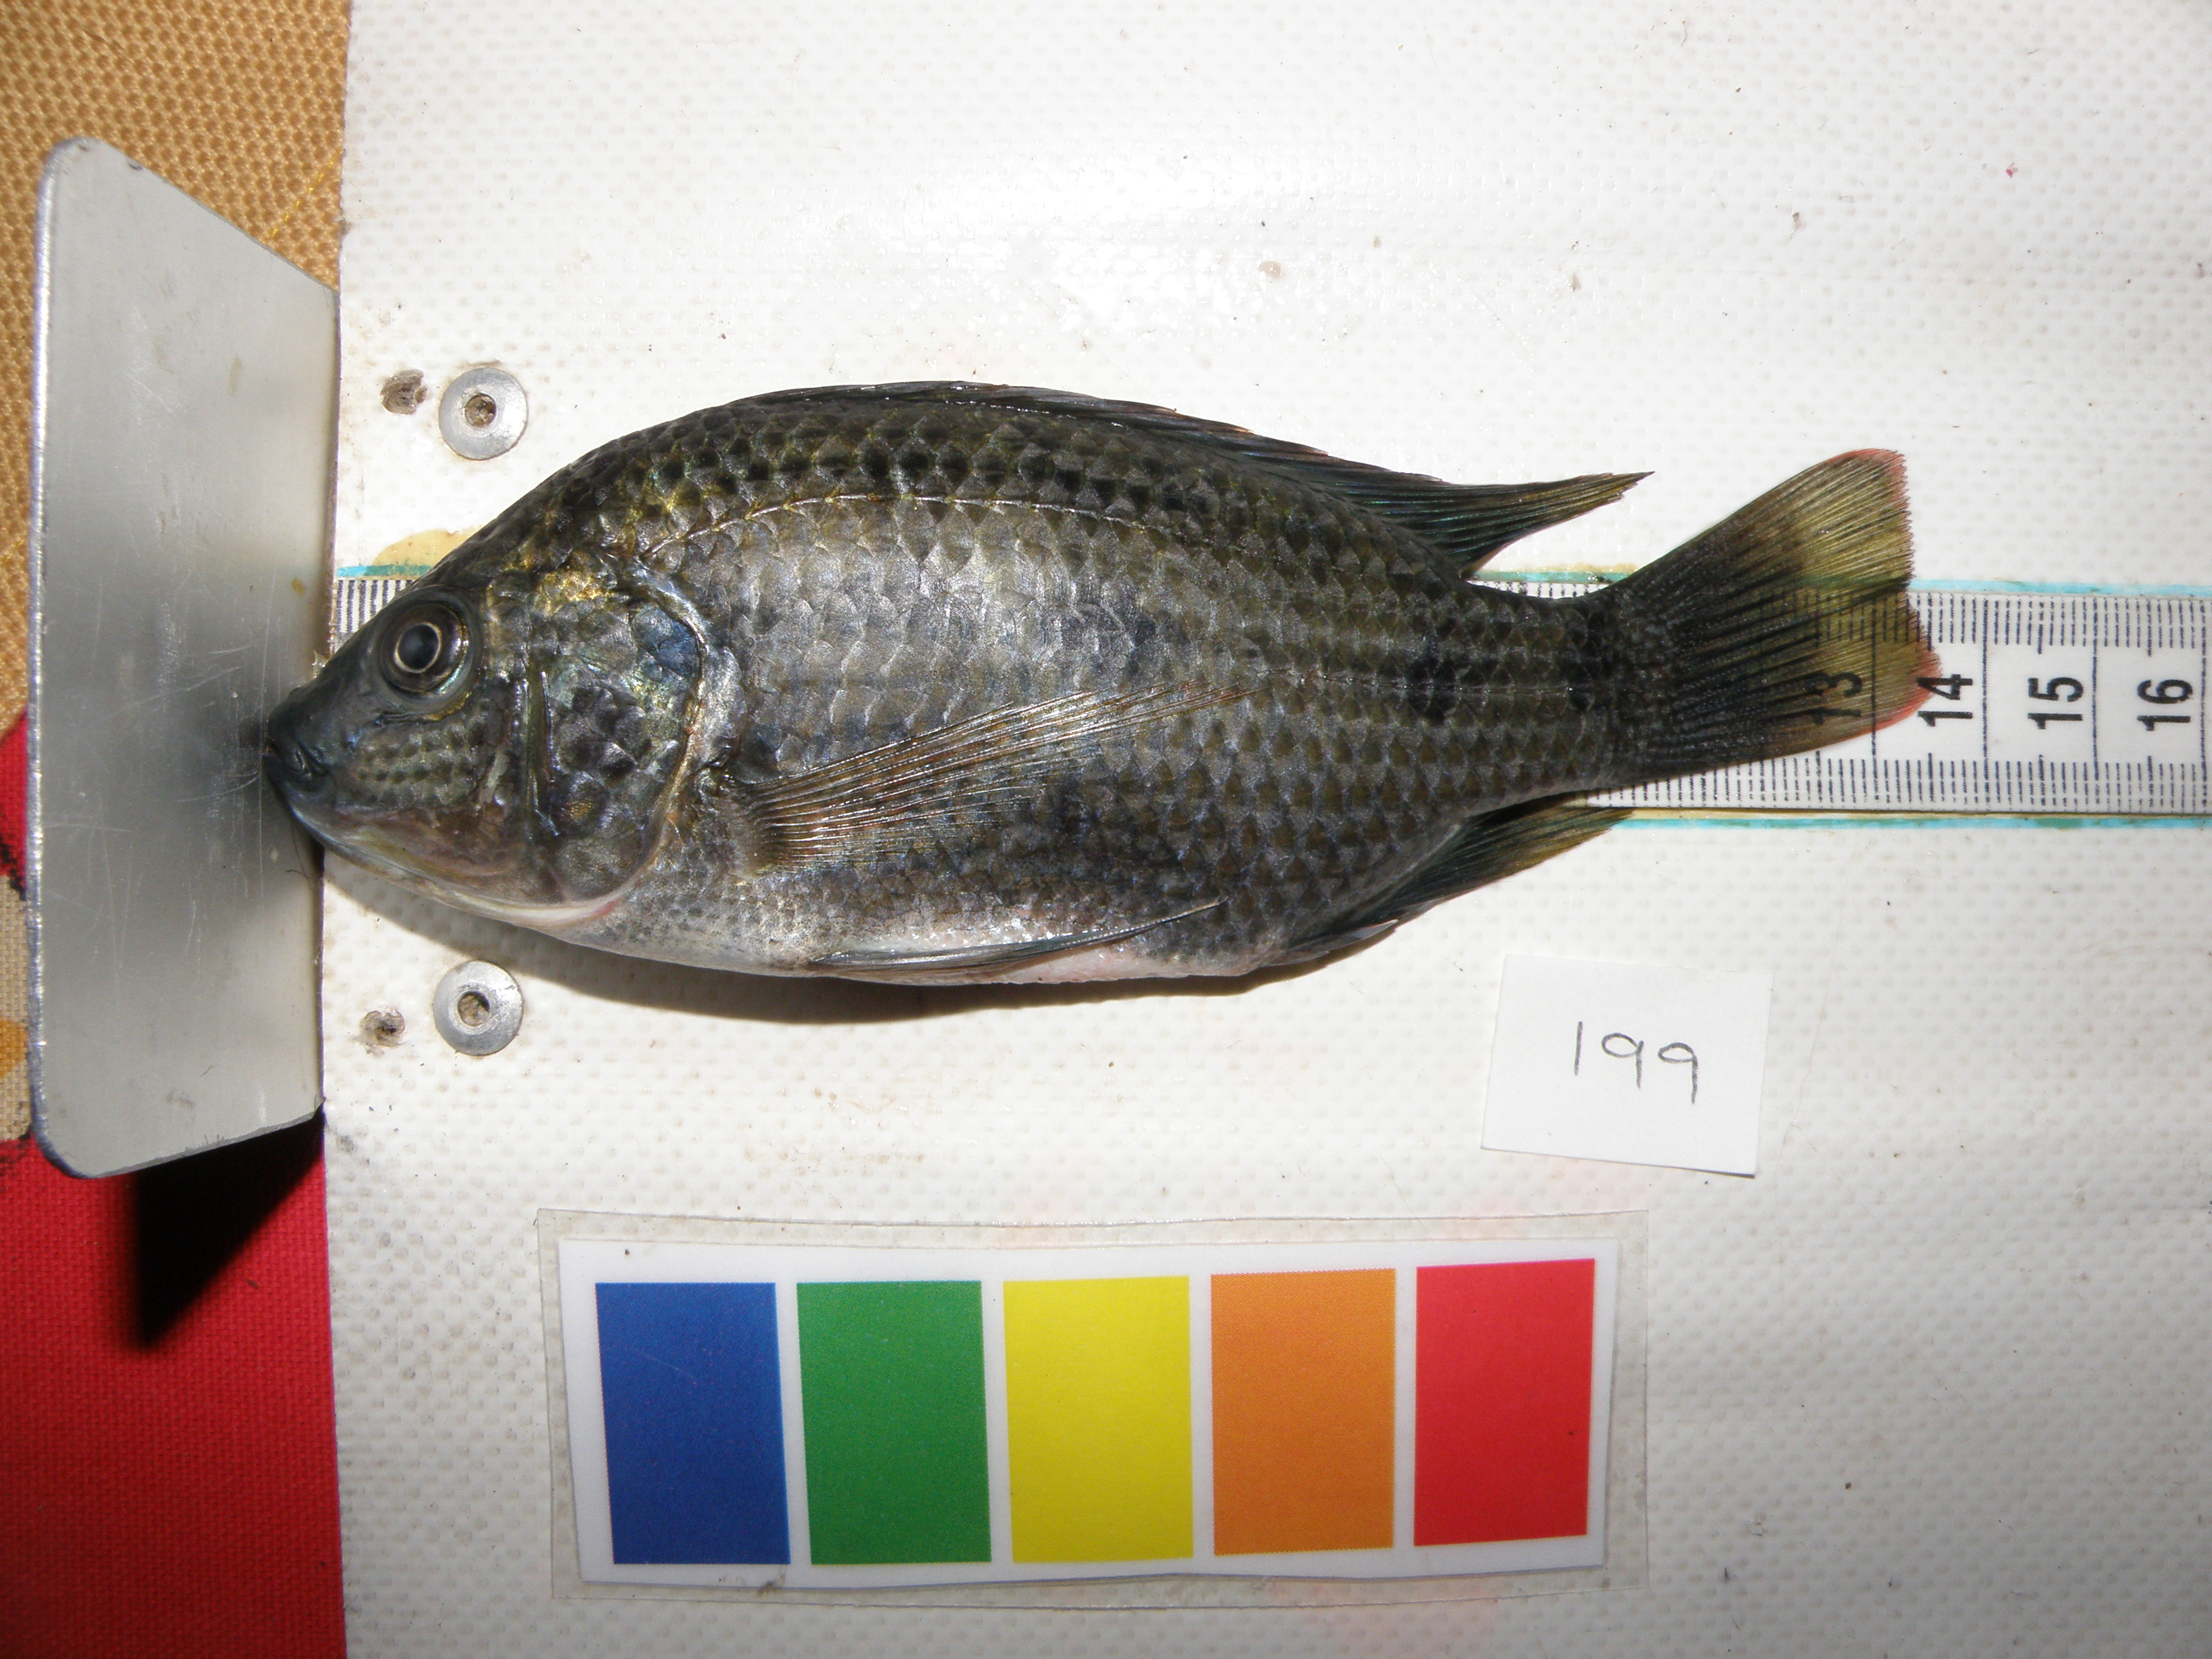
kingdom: Animalia
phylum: Chordata
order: Perciformes
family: Cichlidae
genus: Oreochromis
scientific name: Oreochromis mossambicus
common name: Mozambique tilapia
